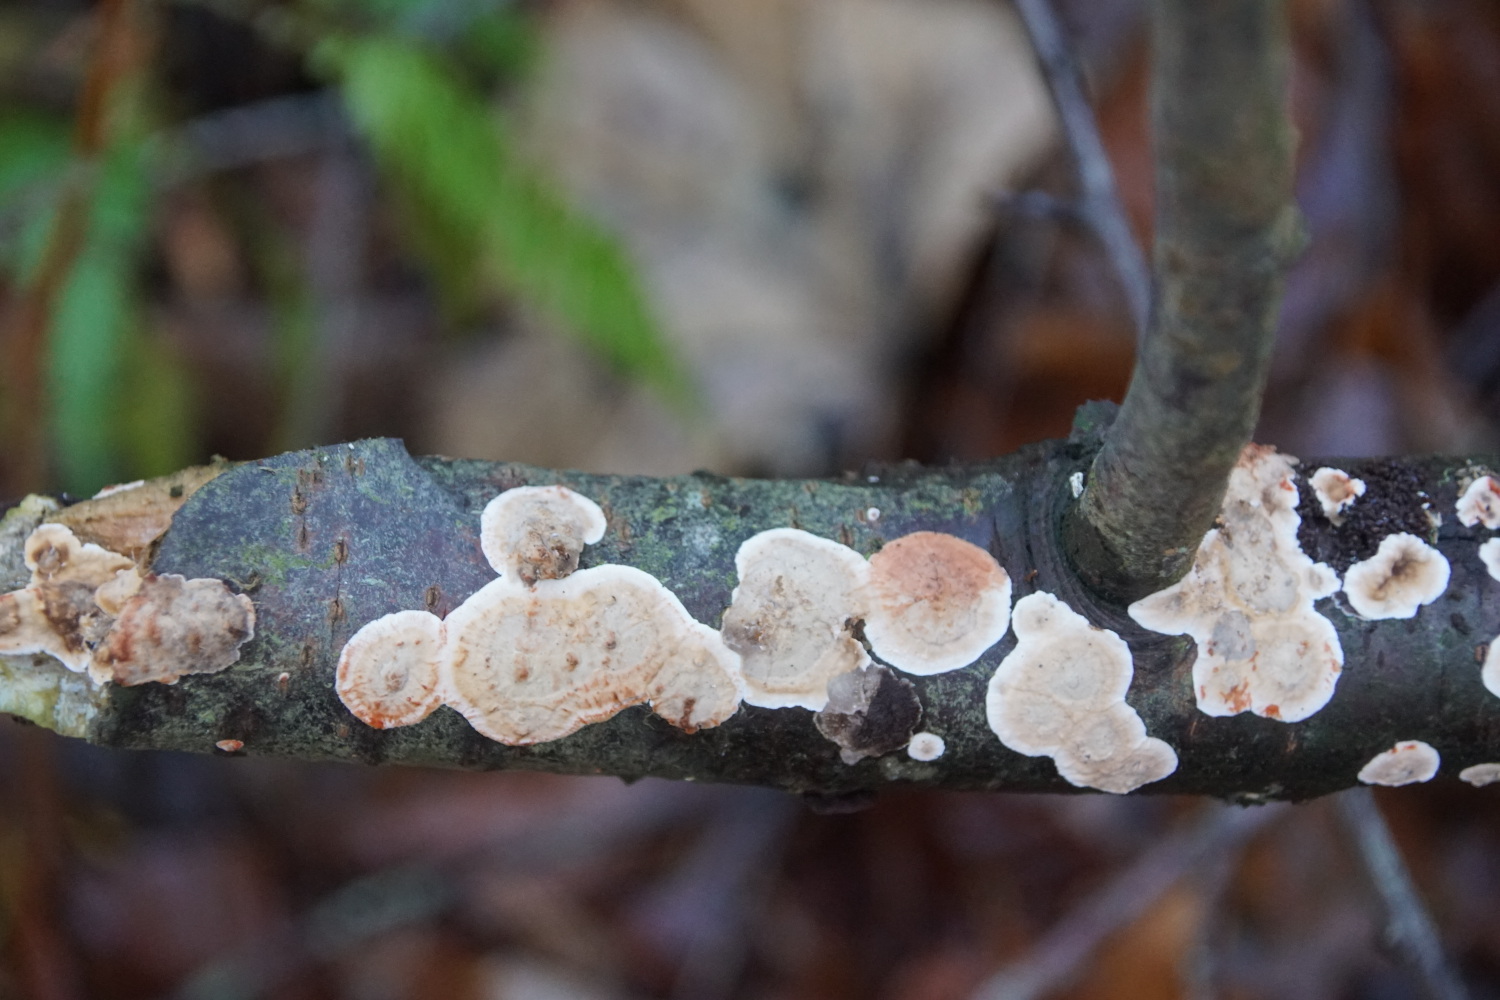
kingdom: Fungi
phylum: Basidiomycota
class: Agaricomycetes
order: Russulales
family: Stereaceae
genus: Stereum
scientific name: Stereum rugosum
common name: rynket lædersvamp
